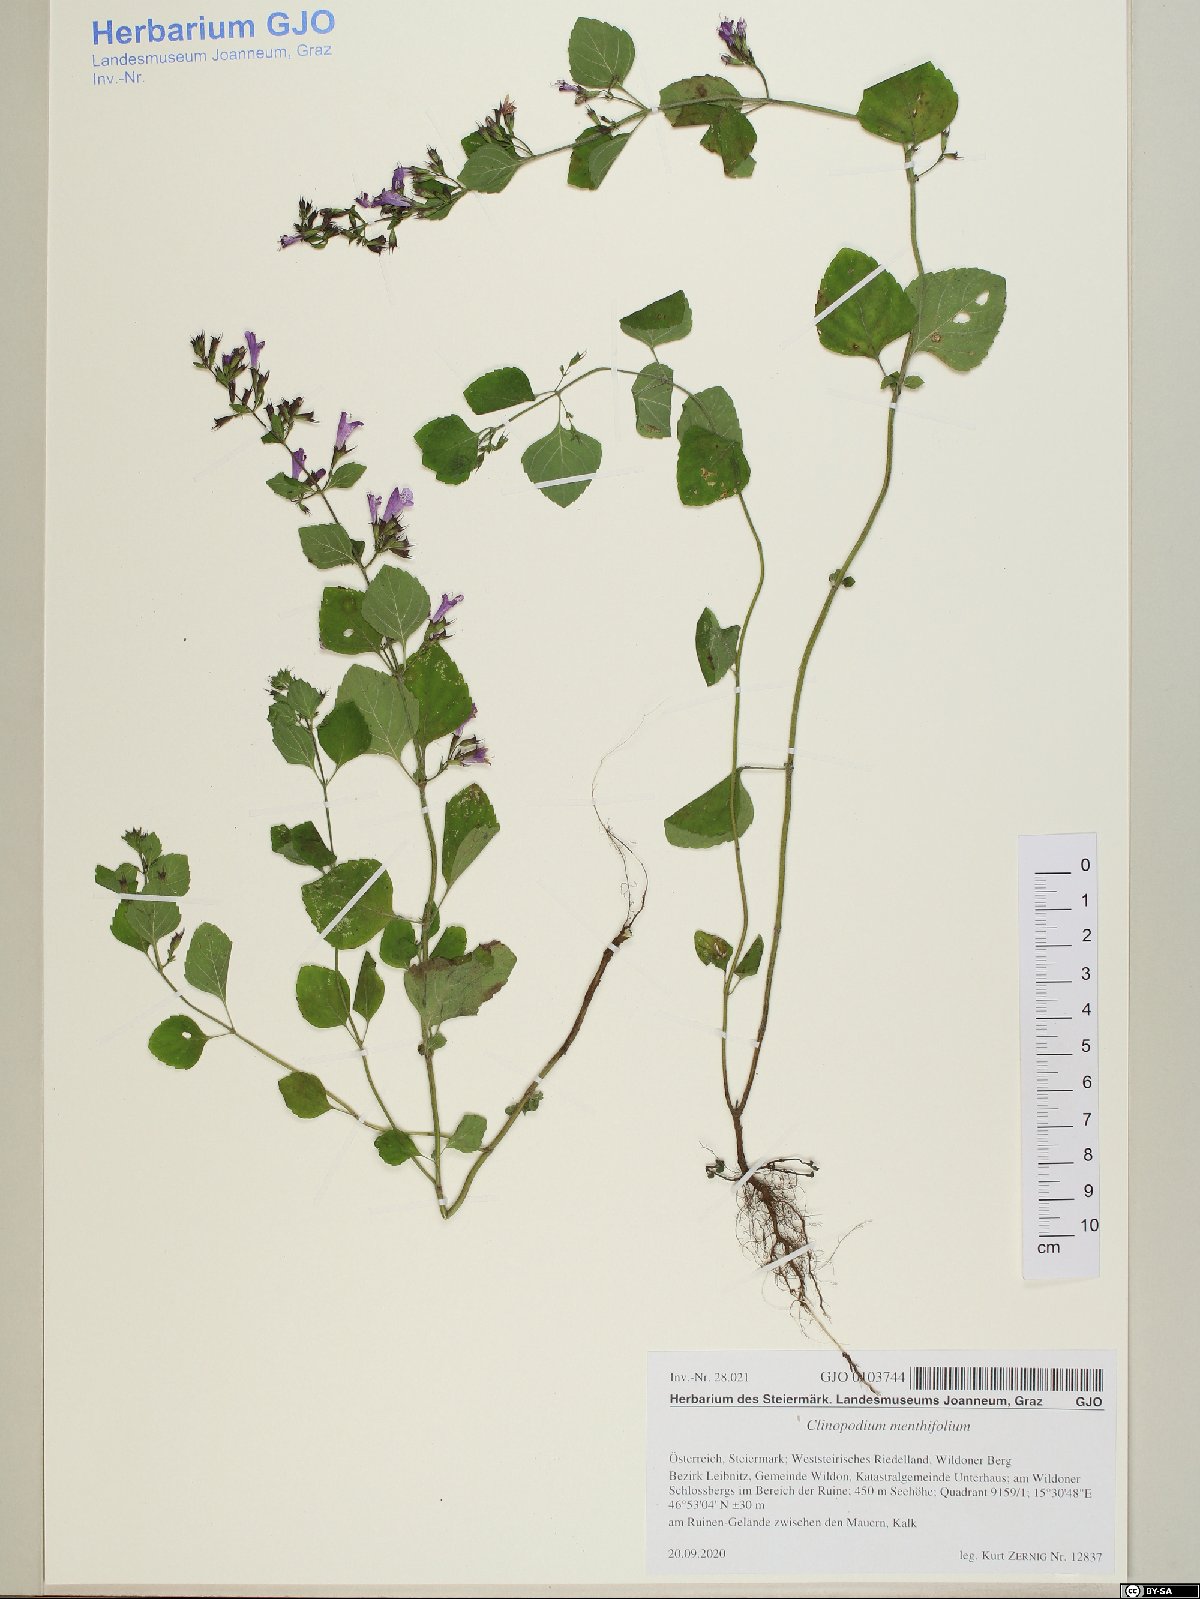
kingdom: Plantae
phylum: Tracheophyta
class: Magnoliopsida
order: Lamiales
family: Lamiaceae
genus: Clinopodium
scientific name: Clinopodium menthifolium
